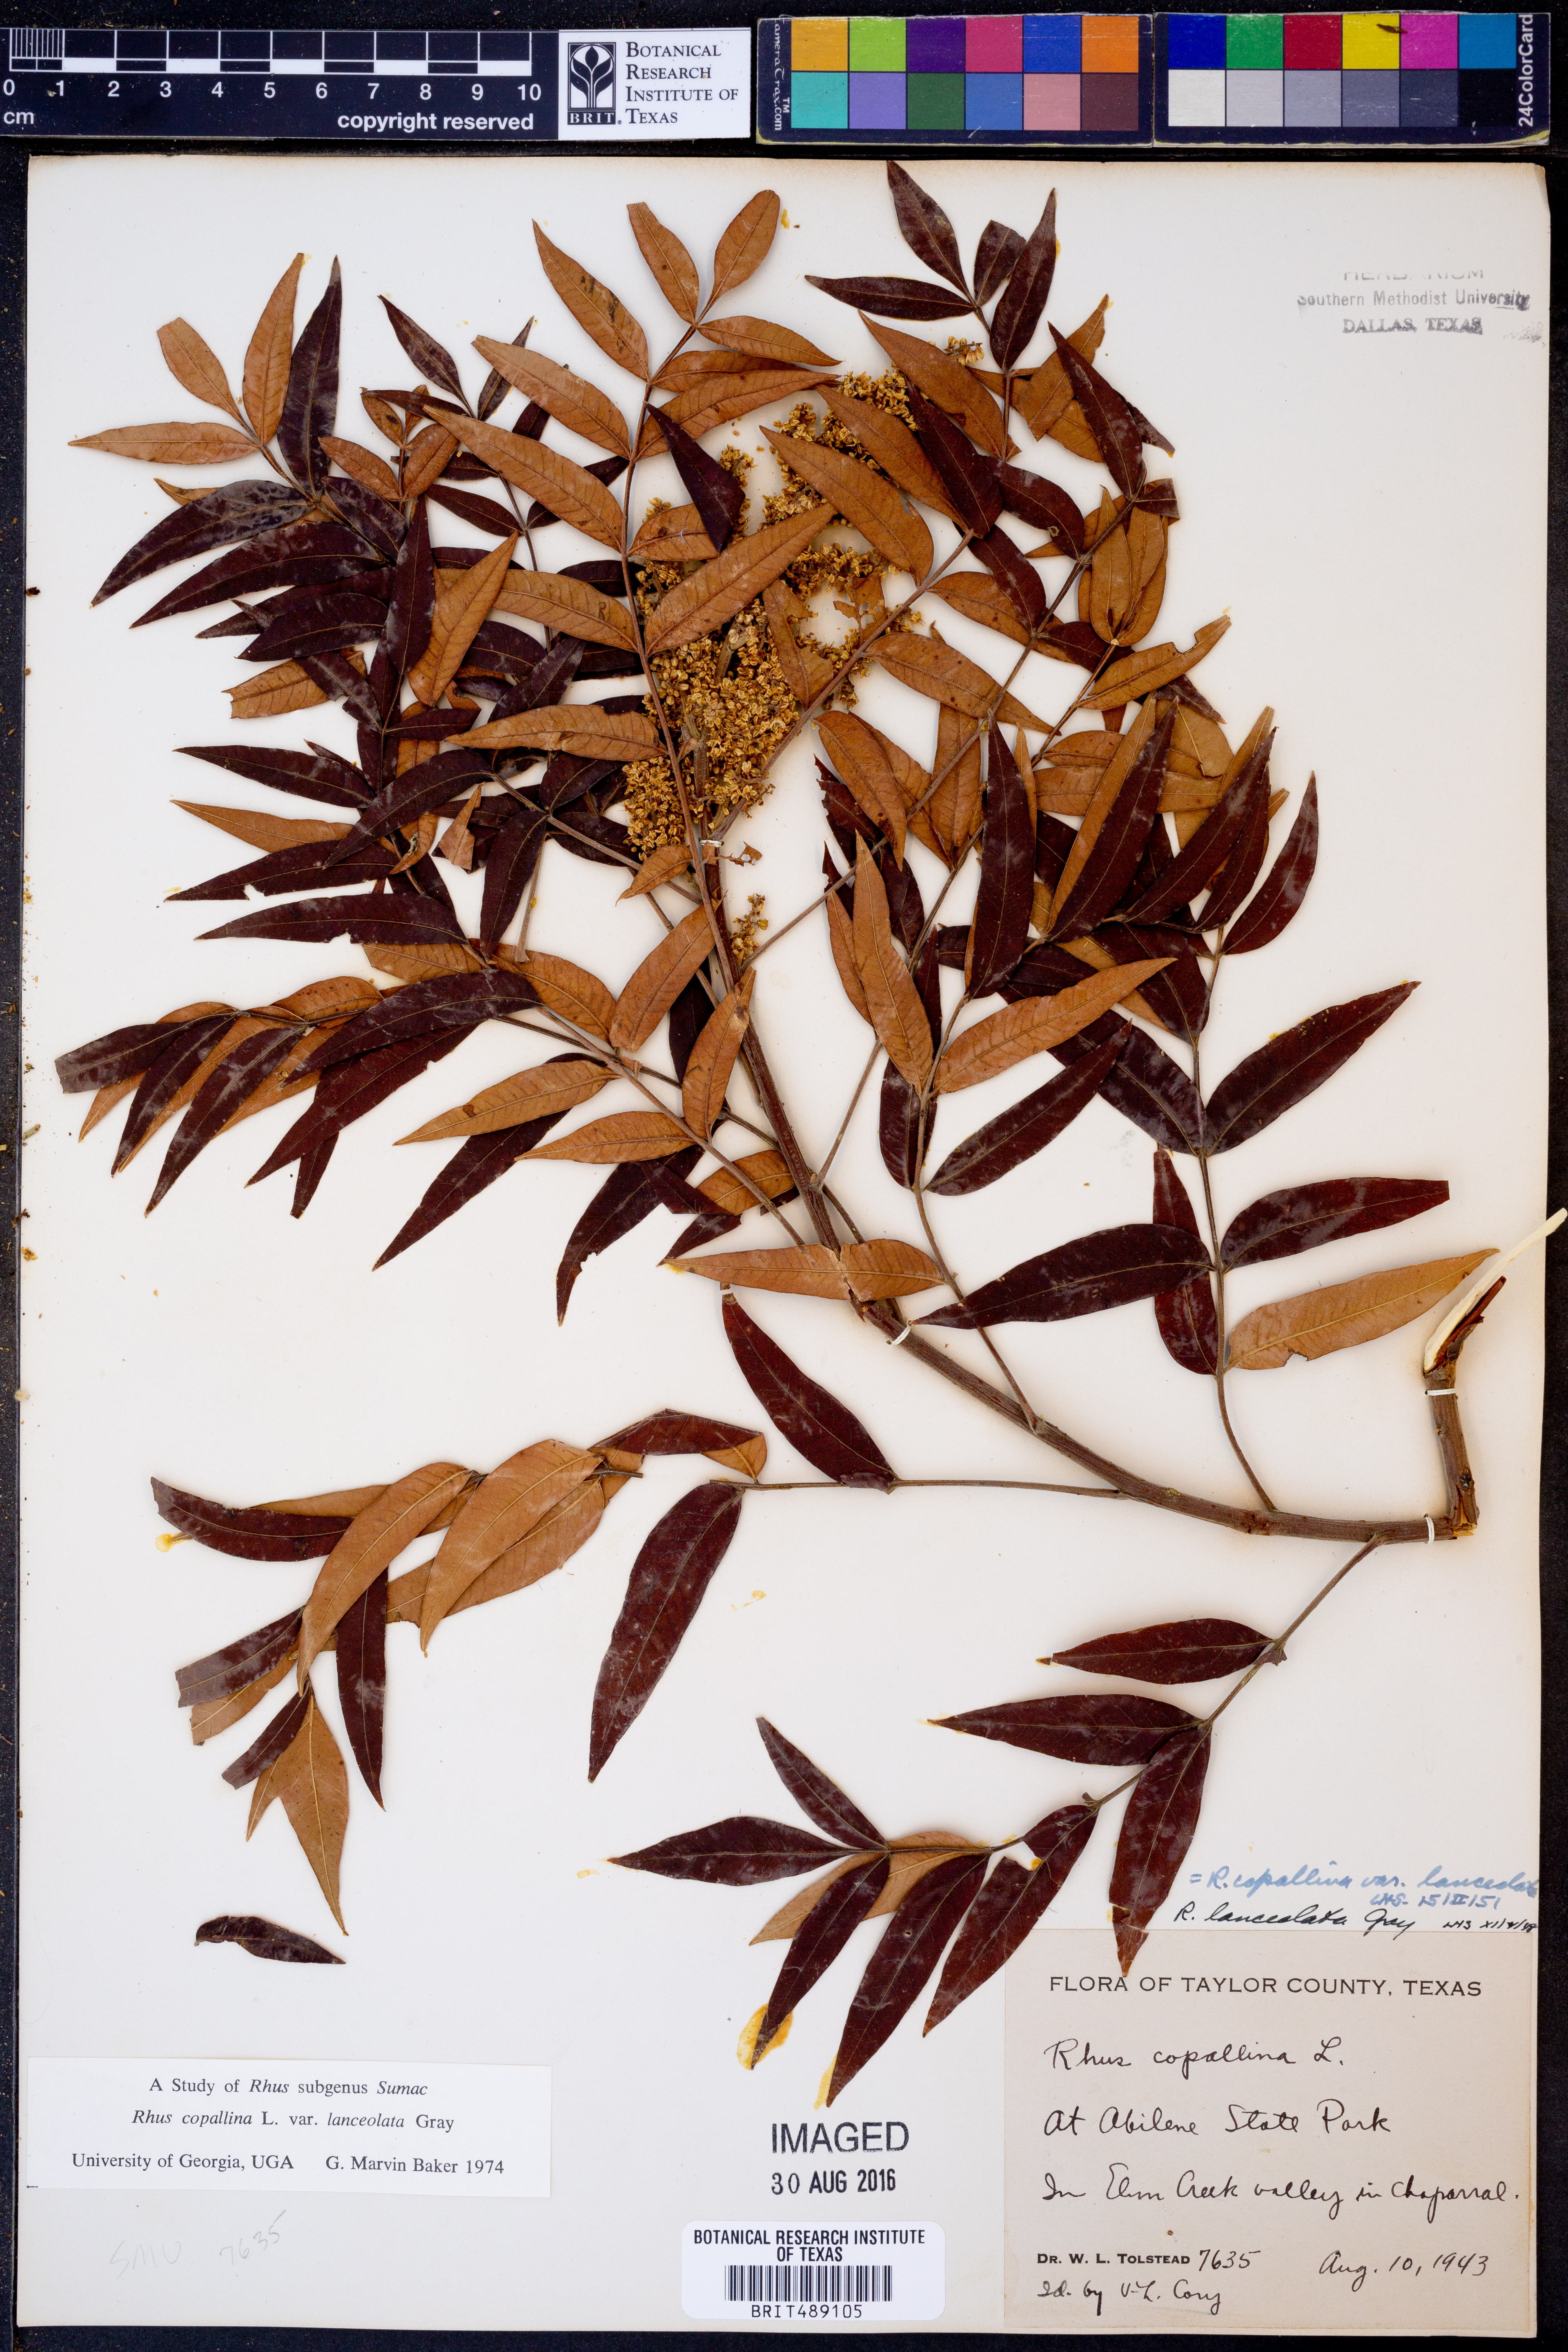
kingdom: Plantae
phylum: Tracheophyta
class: Magnoliopsida
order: Sapindales
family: Anacardiaceae
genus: Rhus
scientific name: Rhus lanceolata
